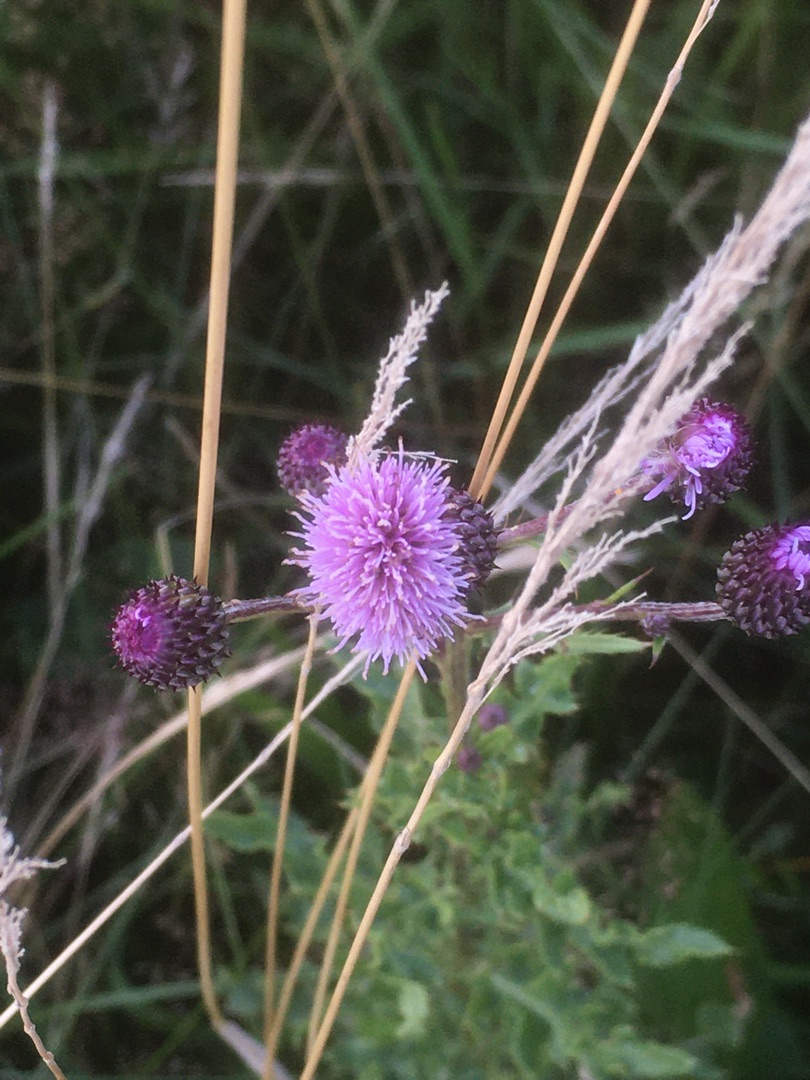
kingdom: Plantae
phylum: Tracheophyta
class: Magnoliopsida
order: Asterales
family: Asteraceae
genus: Cirsium
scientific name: Cirsium arvense
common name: Ager-tidsel
